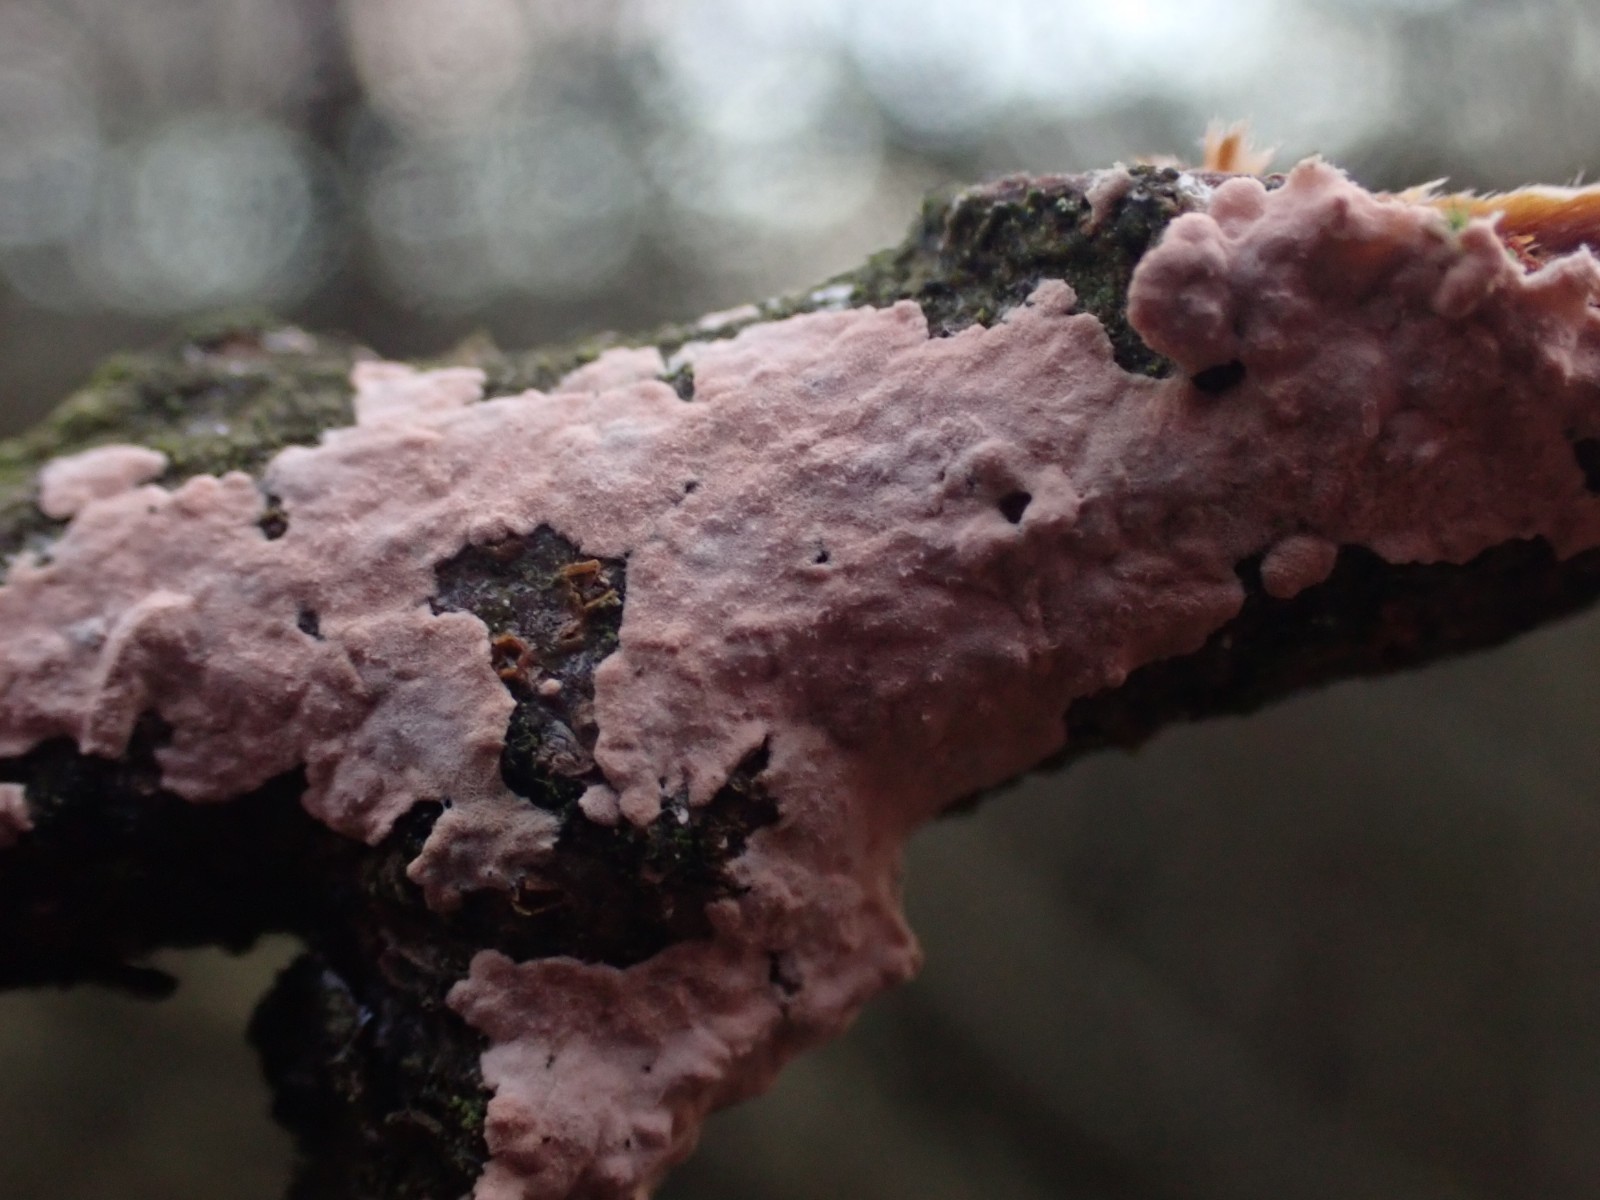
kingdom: Fungi
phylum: Basidiomycota
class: Agaricomycetes
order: Corticiales
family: Corticiaceae
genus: Corticium
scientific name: Corticium roseum
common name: rosa barkskind
